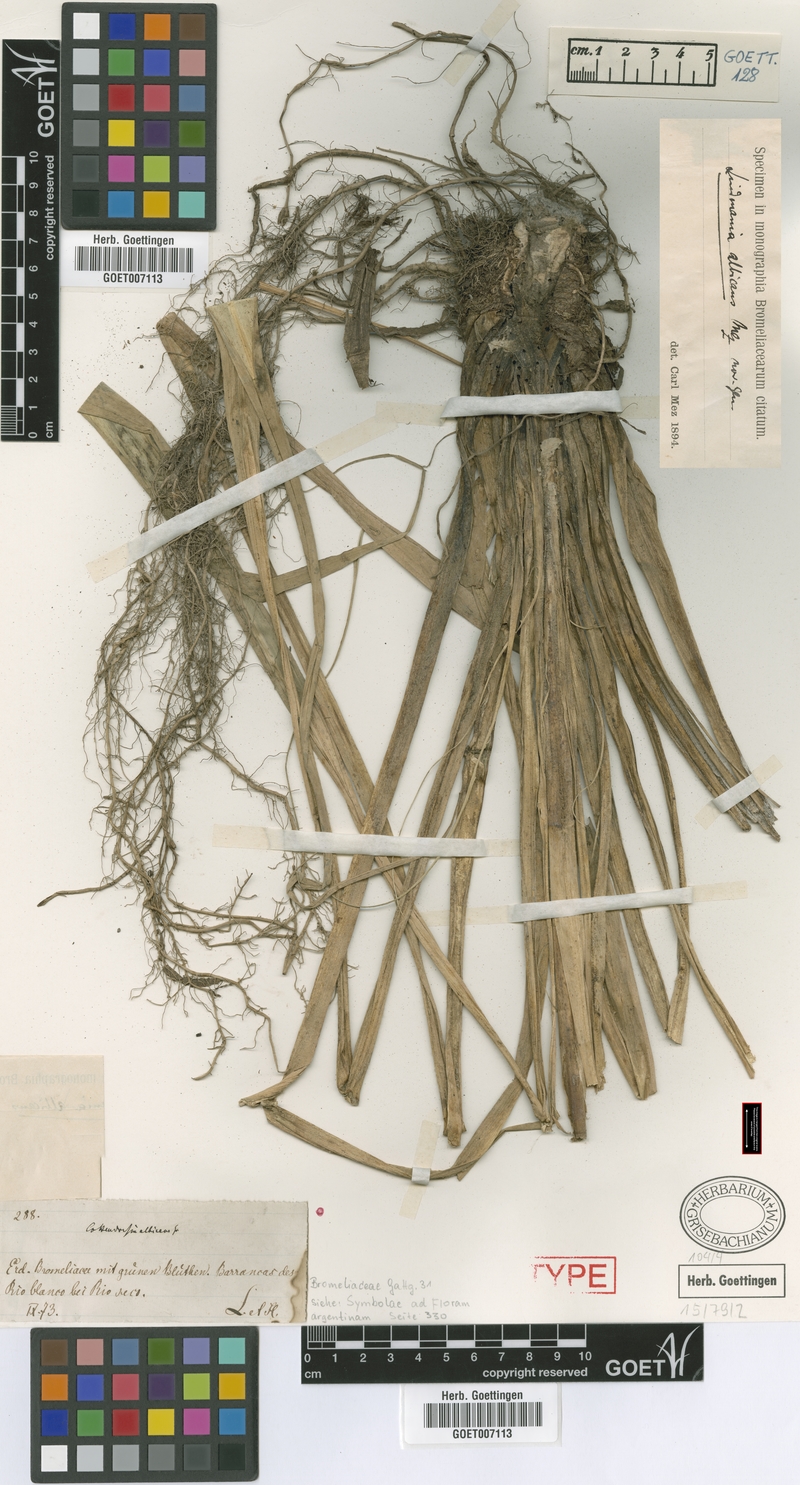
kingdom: Plantae
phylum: Tracheophyta
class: Liliopsida
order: Poales
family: Bromeliaceae
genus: Fosterella
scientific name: Fosterella albicans
